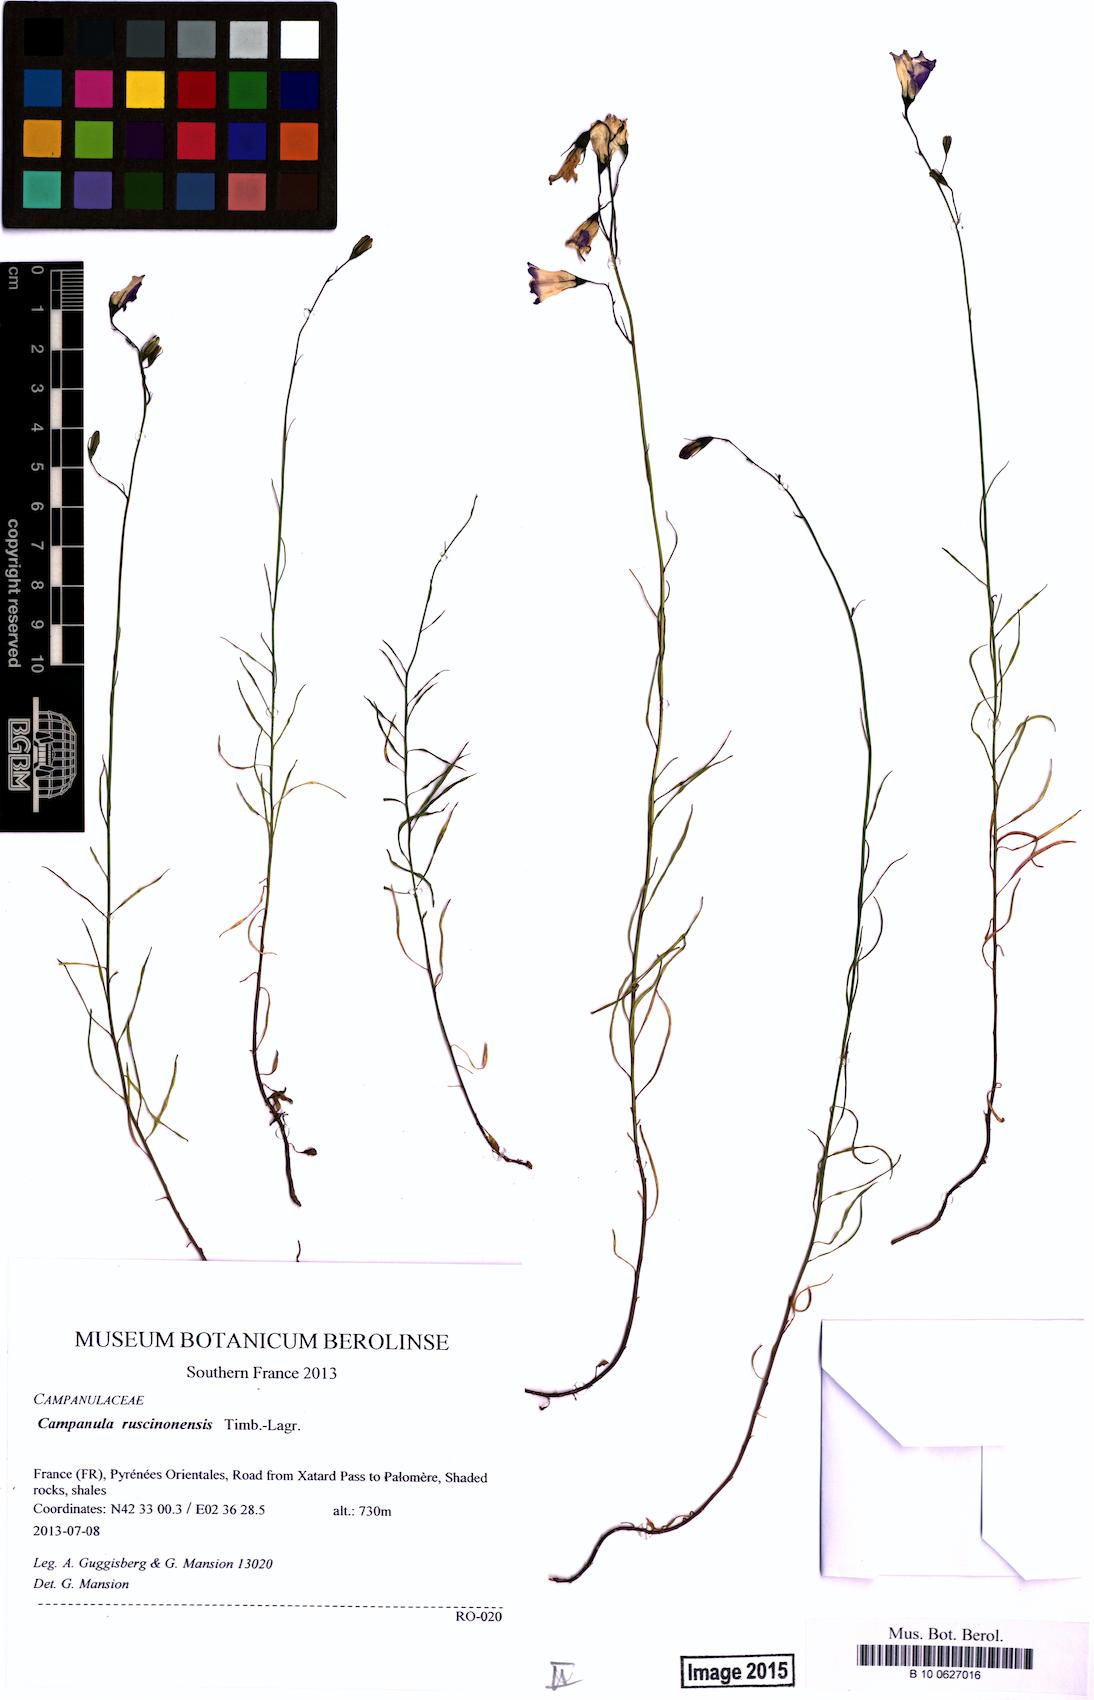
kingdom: Plantae
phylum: Tracheophyta
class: Magnoliopsida
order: Asterales
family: Campanulaceae
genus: Campanula
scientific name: Campanula ruscinonensis
